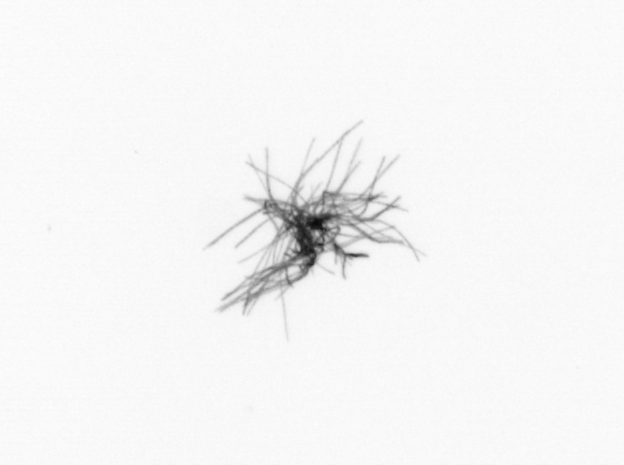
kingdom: Bacteria
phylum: Cyanobacteria
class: Cyanobacteriia
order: Cyanobacteriales
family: Microcoleaceae
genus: Trichodesmium
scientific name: Trichodesmium
